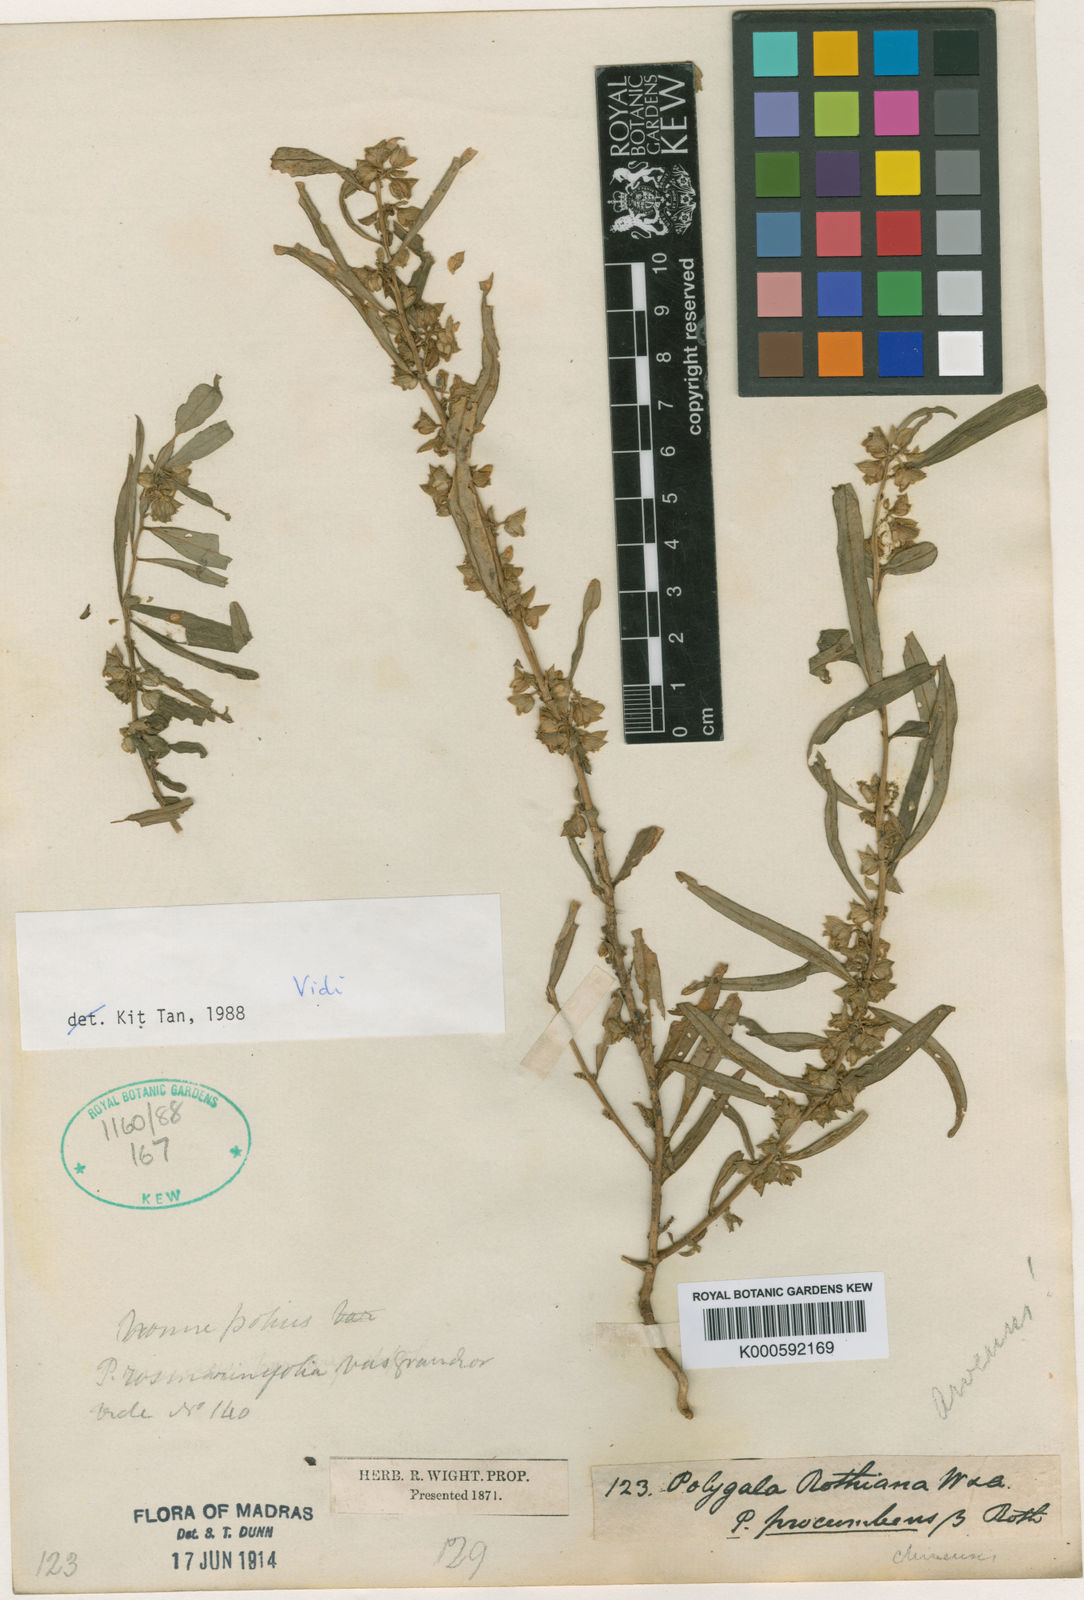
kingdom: Plantae
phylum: Tracheophyta
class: Magnoliopsida
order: Fabales
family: Polygalaceae
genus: Polygala
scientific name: Polygala glomerata
